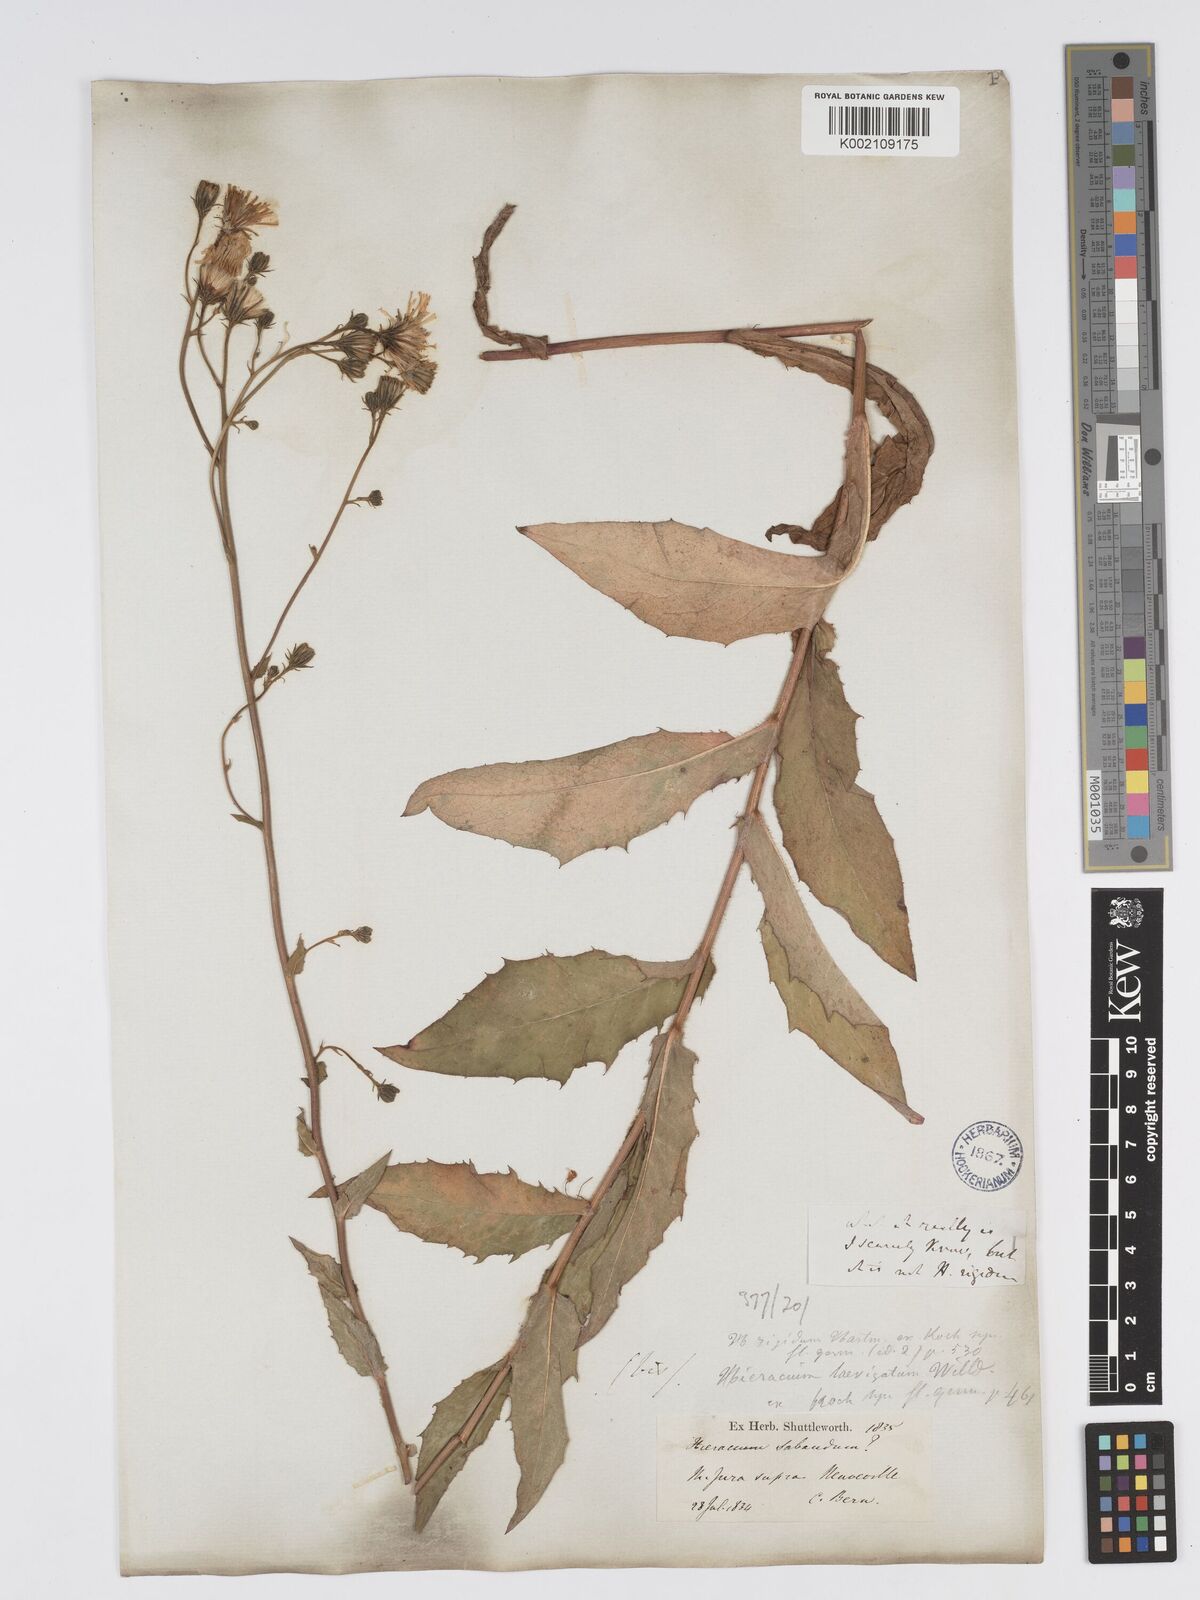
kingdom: Plantae
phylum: Tracheophyta
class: Magnoliopsida
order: Asterales
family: Asteraceae
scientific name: Asteraceae
